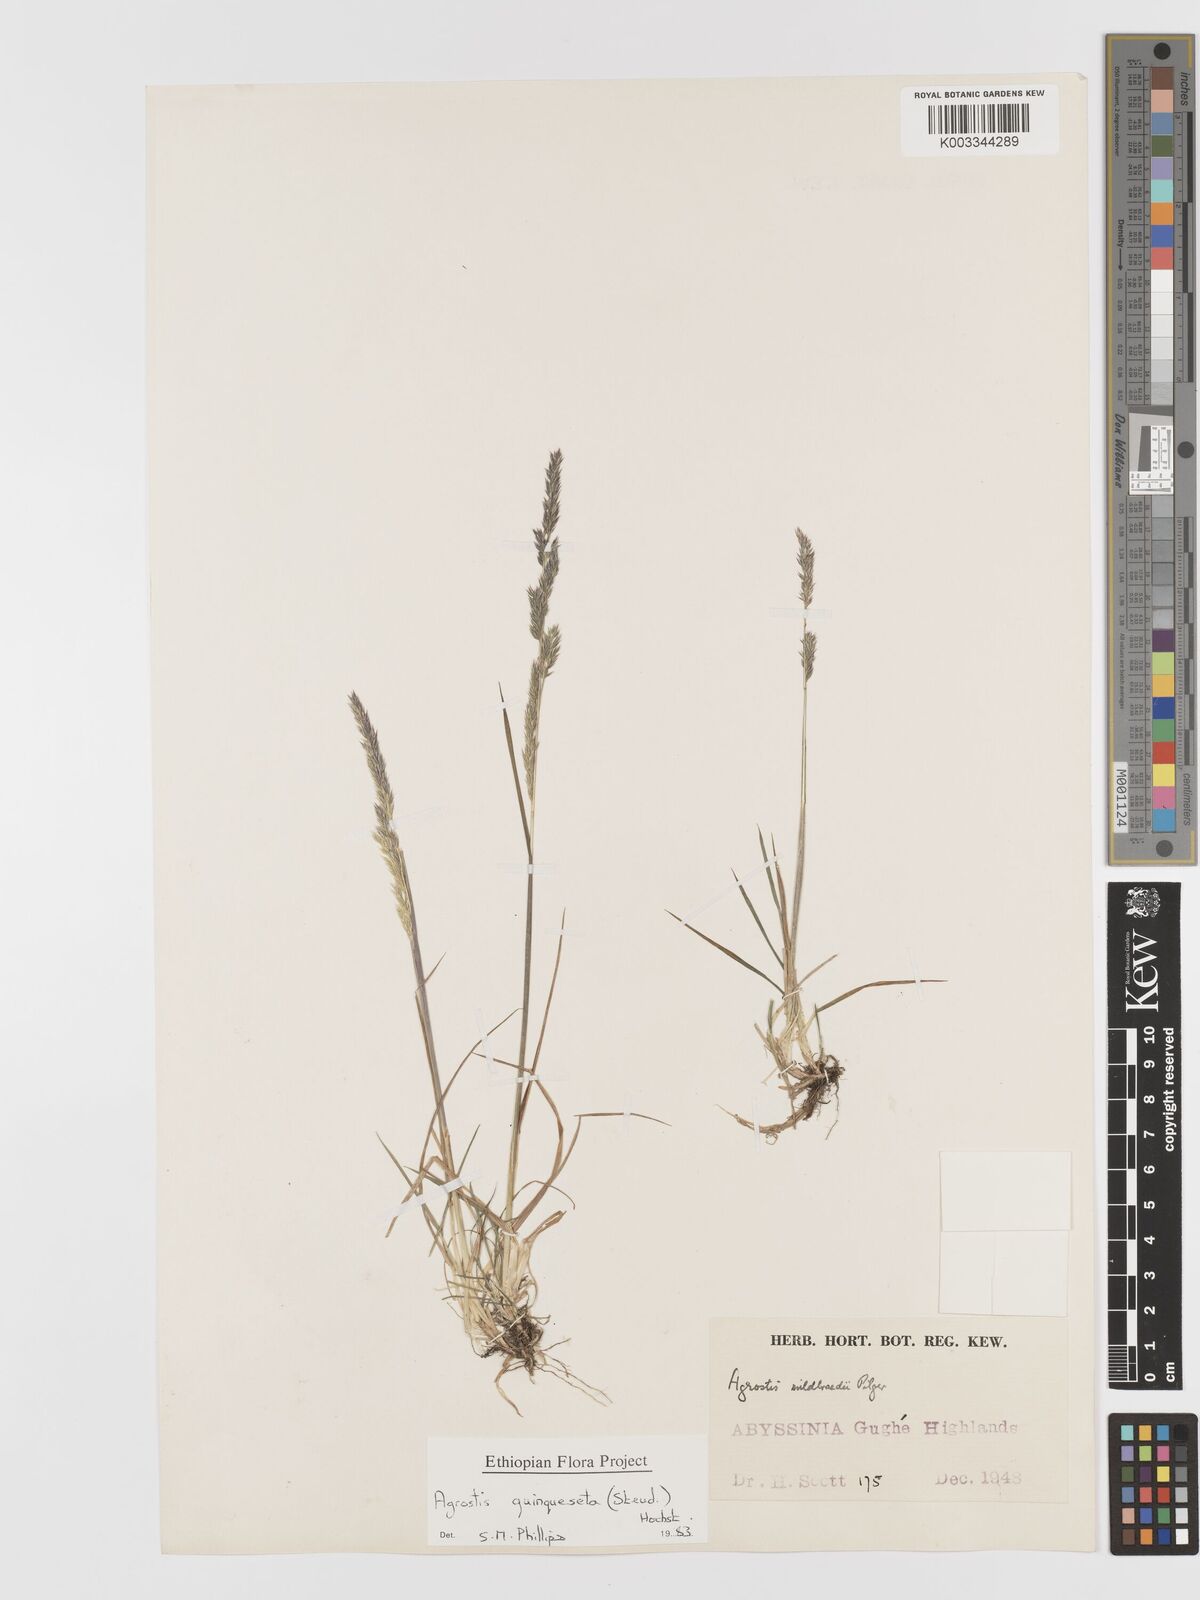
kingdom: Plantae
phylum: Tracheophyta
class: Liliopsida
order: Poales
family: Poaceae
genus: Agrostis
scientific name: Agrostis quinqueseta
